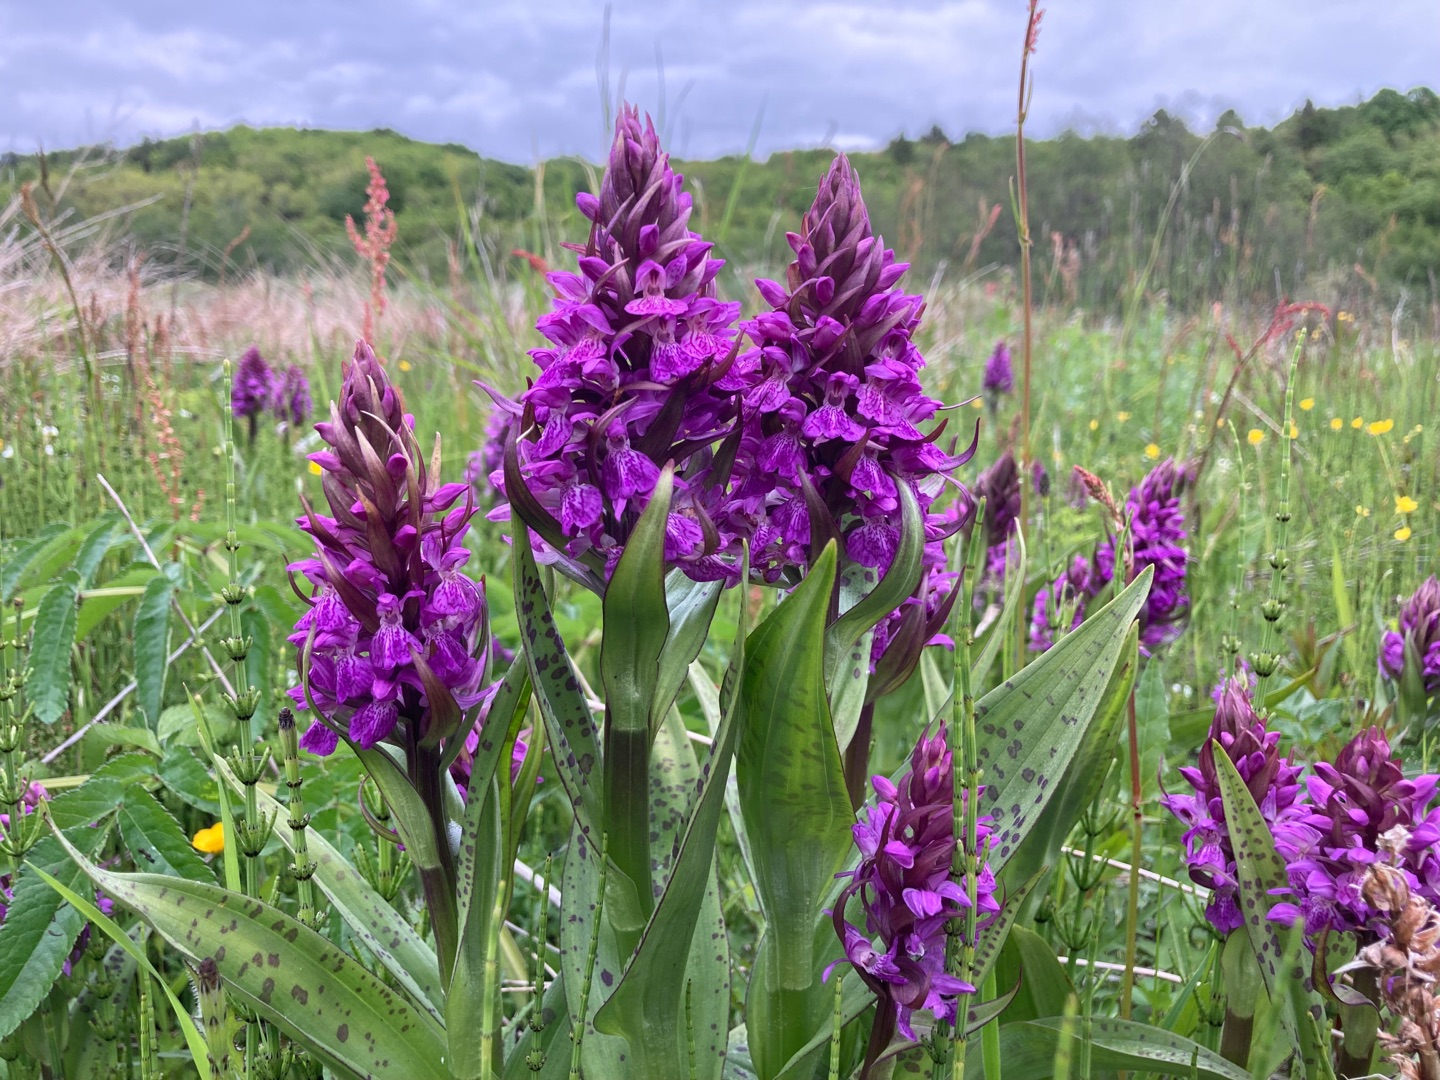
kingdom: Plantae
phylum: Tracheophyta
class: Liliopsida
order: Asparagales
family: Orchidaceae
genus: Dactylorhiza
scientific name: Dactylorhiza majalis
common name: Maj-gøgeurt
